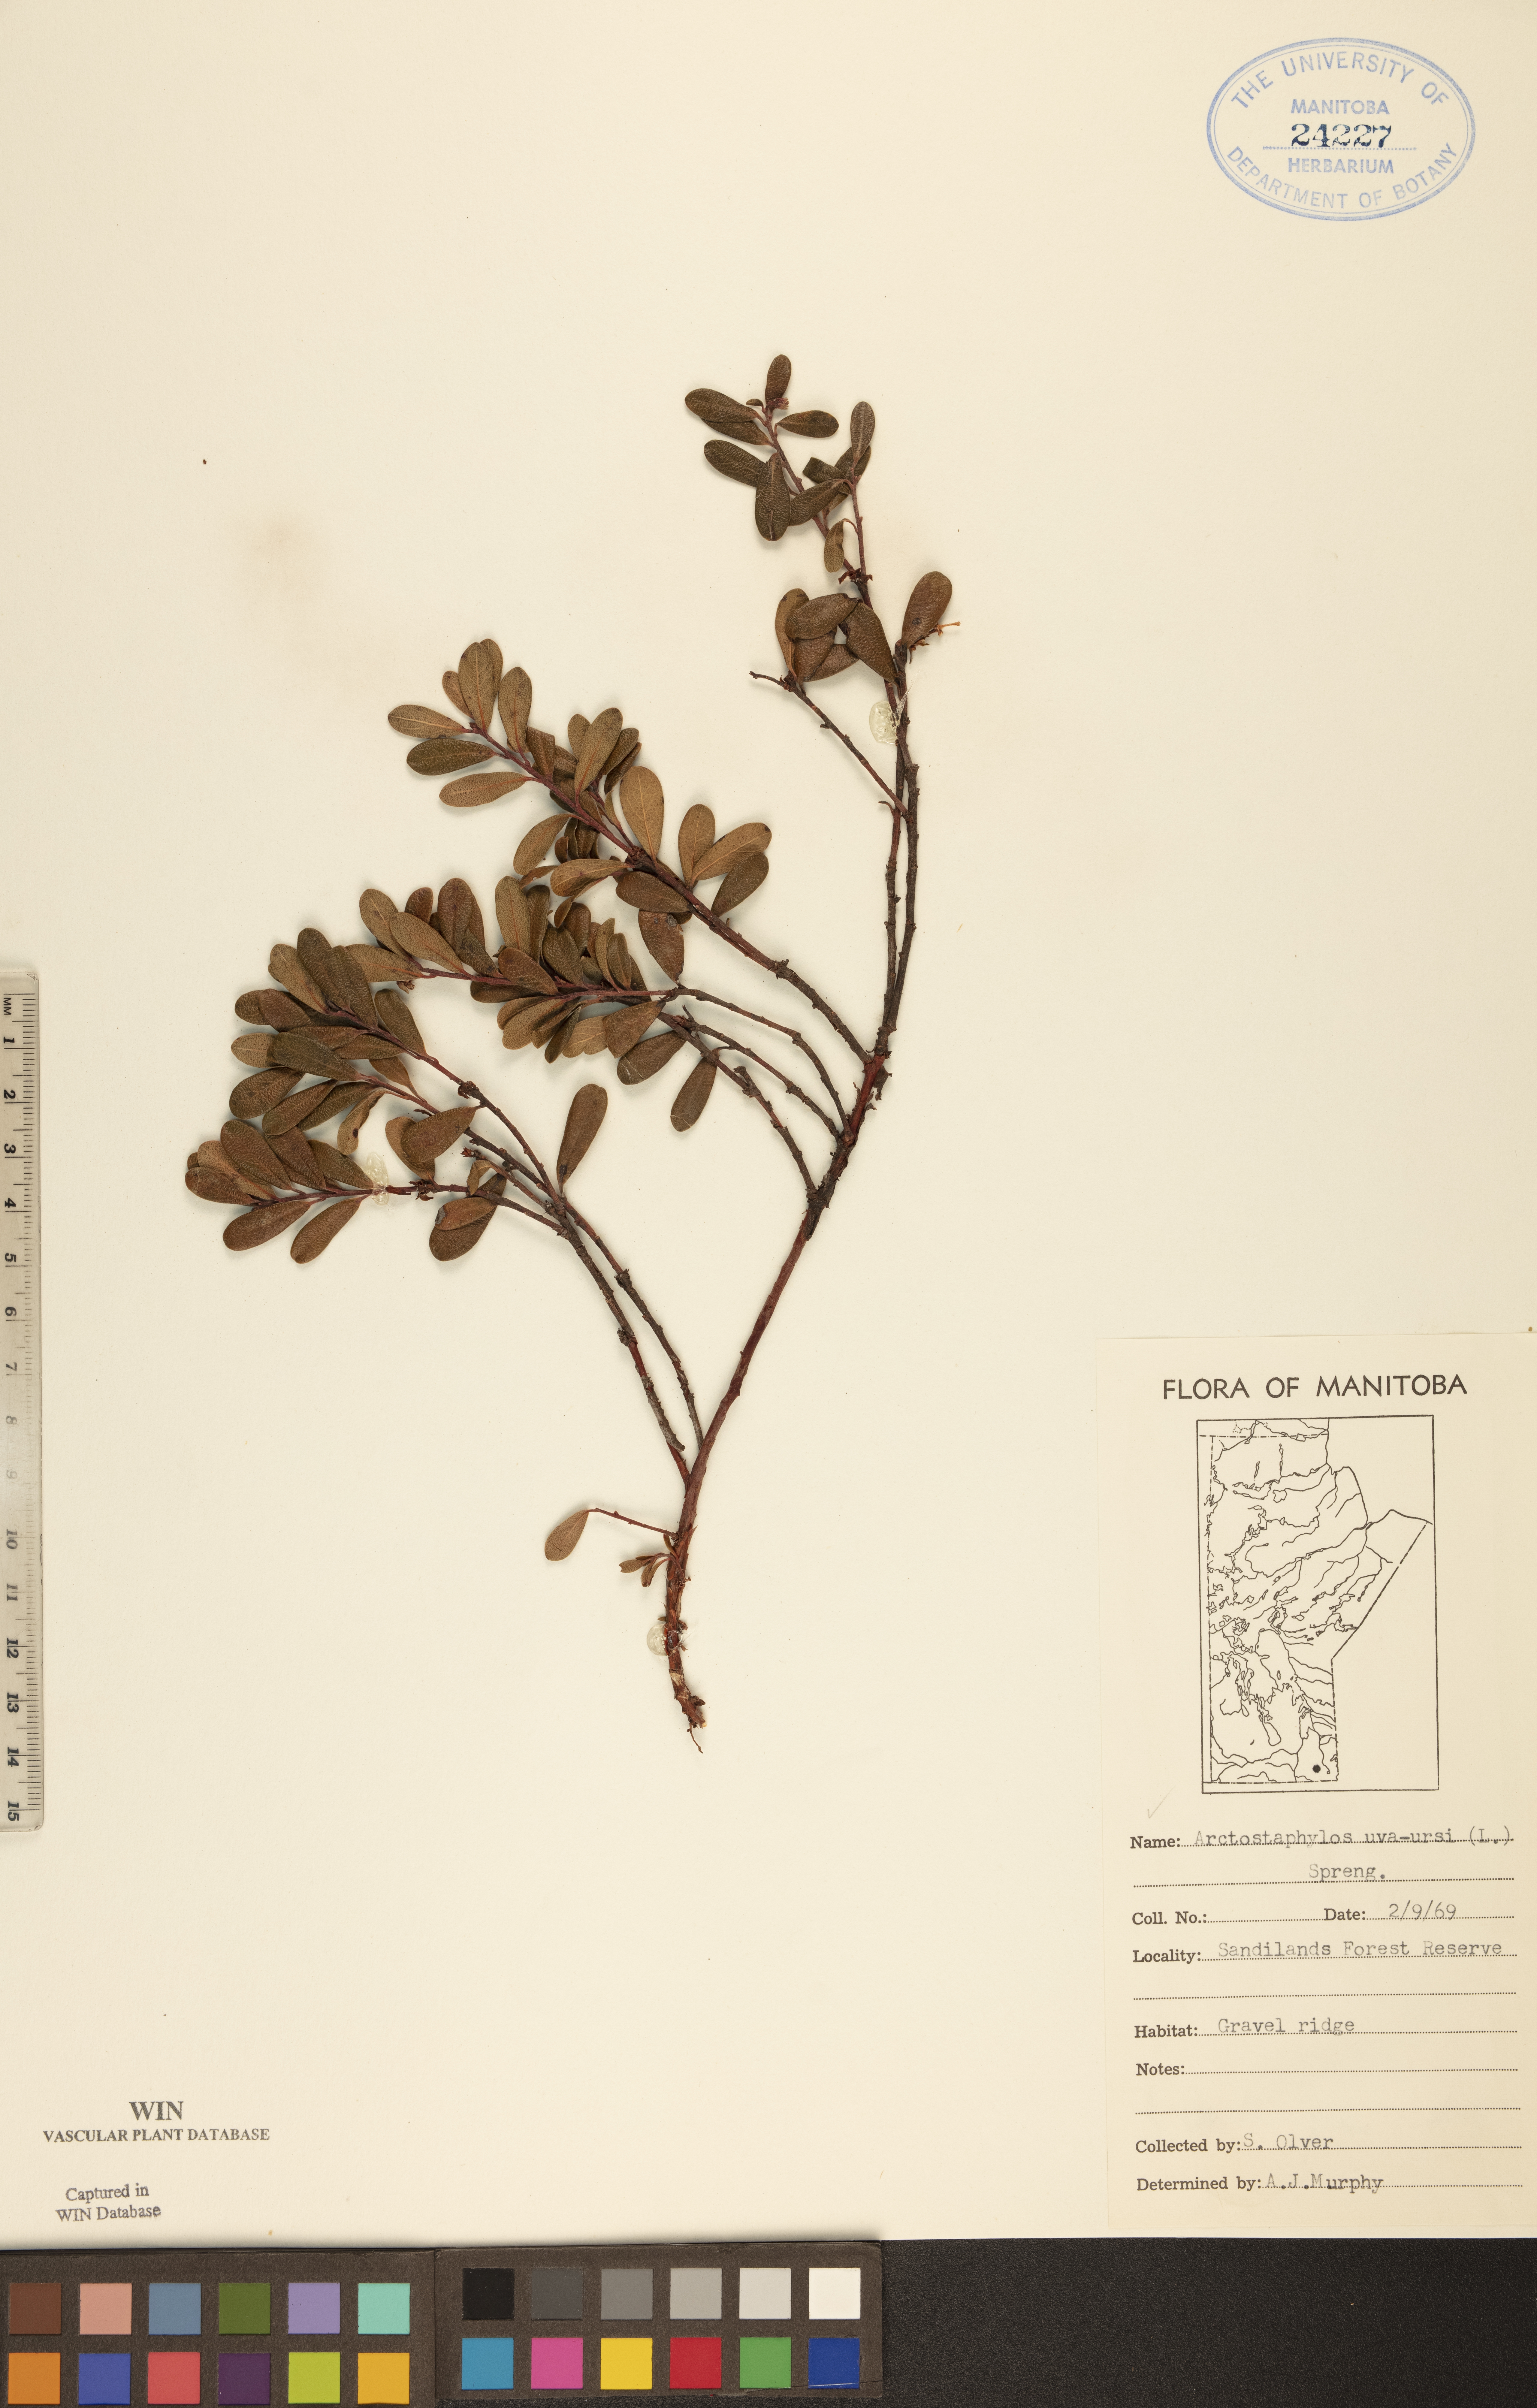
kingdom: Plantae
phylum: Tracheophyta
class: Magnoliopsida
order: Ericales
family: Ericaceae
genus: Arctostaphylos
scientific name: Arctostaphylos uva-ursi
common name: Bearberry
